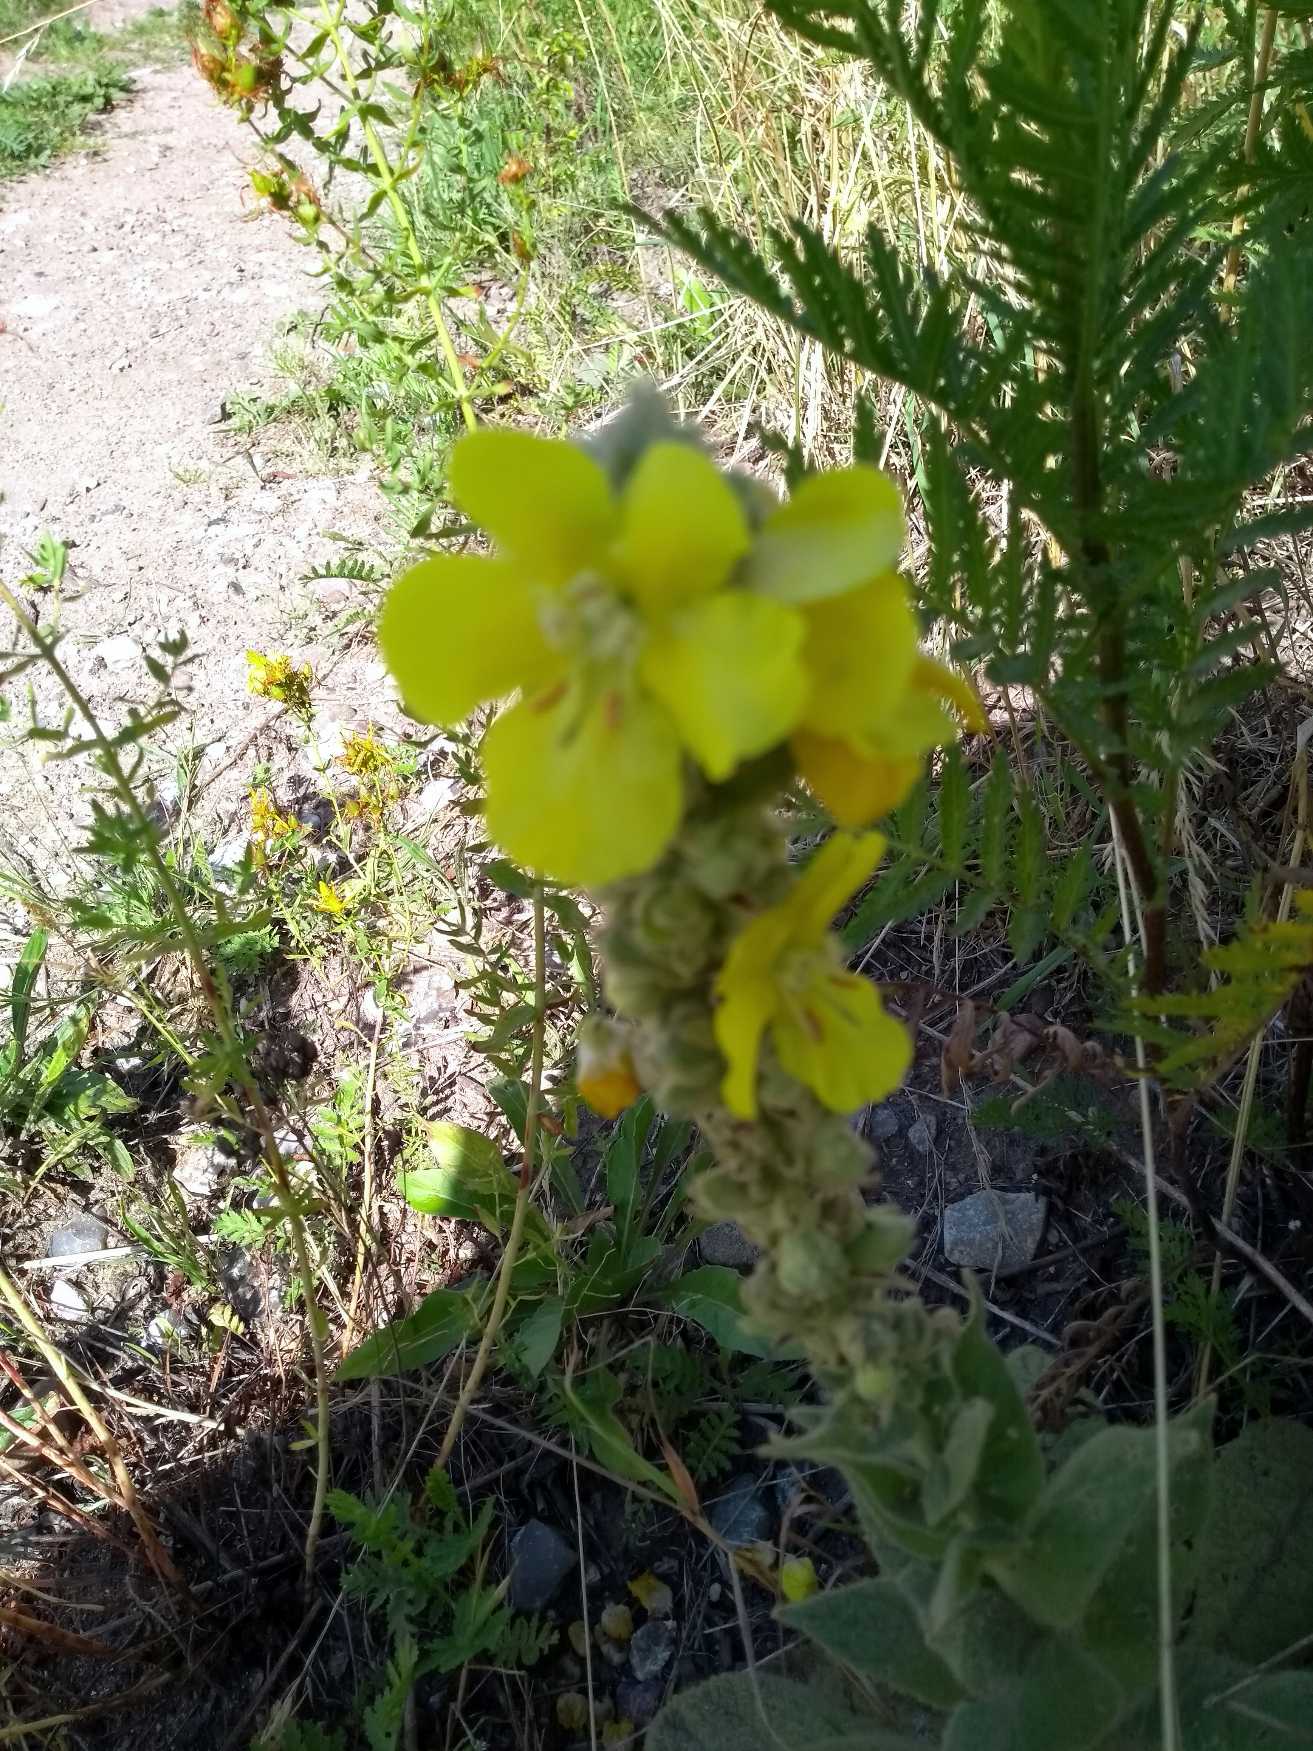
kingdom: Plantae
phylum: Tracheophyta
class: Magnoliopsida
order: Lamiales
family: Scrophulariaceae
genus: Verbascum
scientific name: Verbascum densiflorum
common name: Uldbladet kongelys
